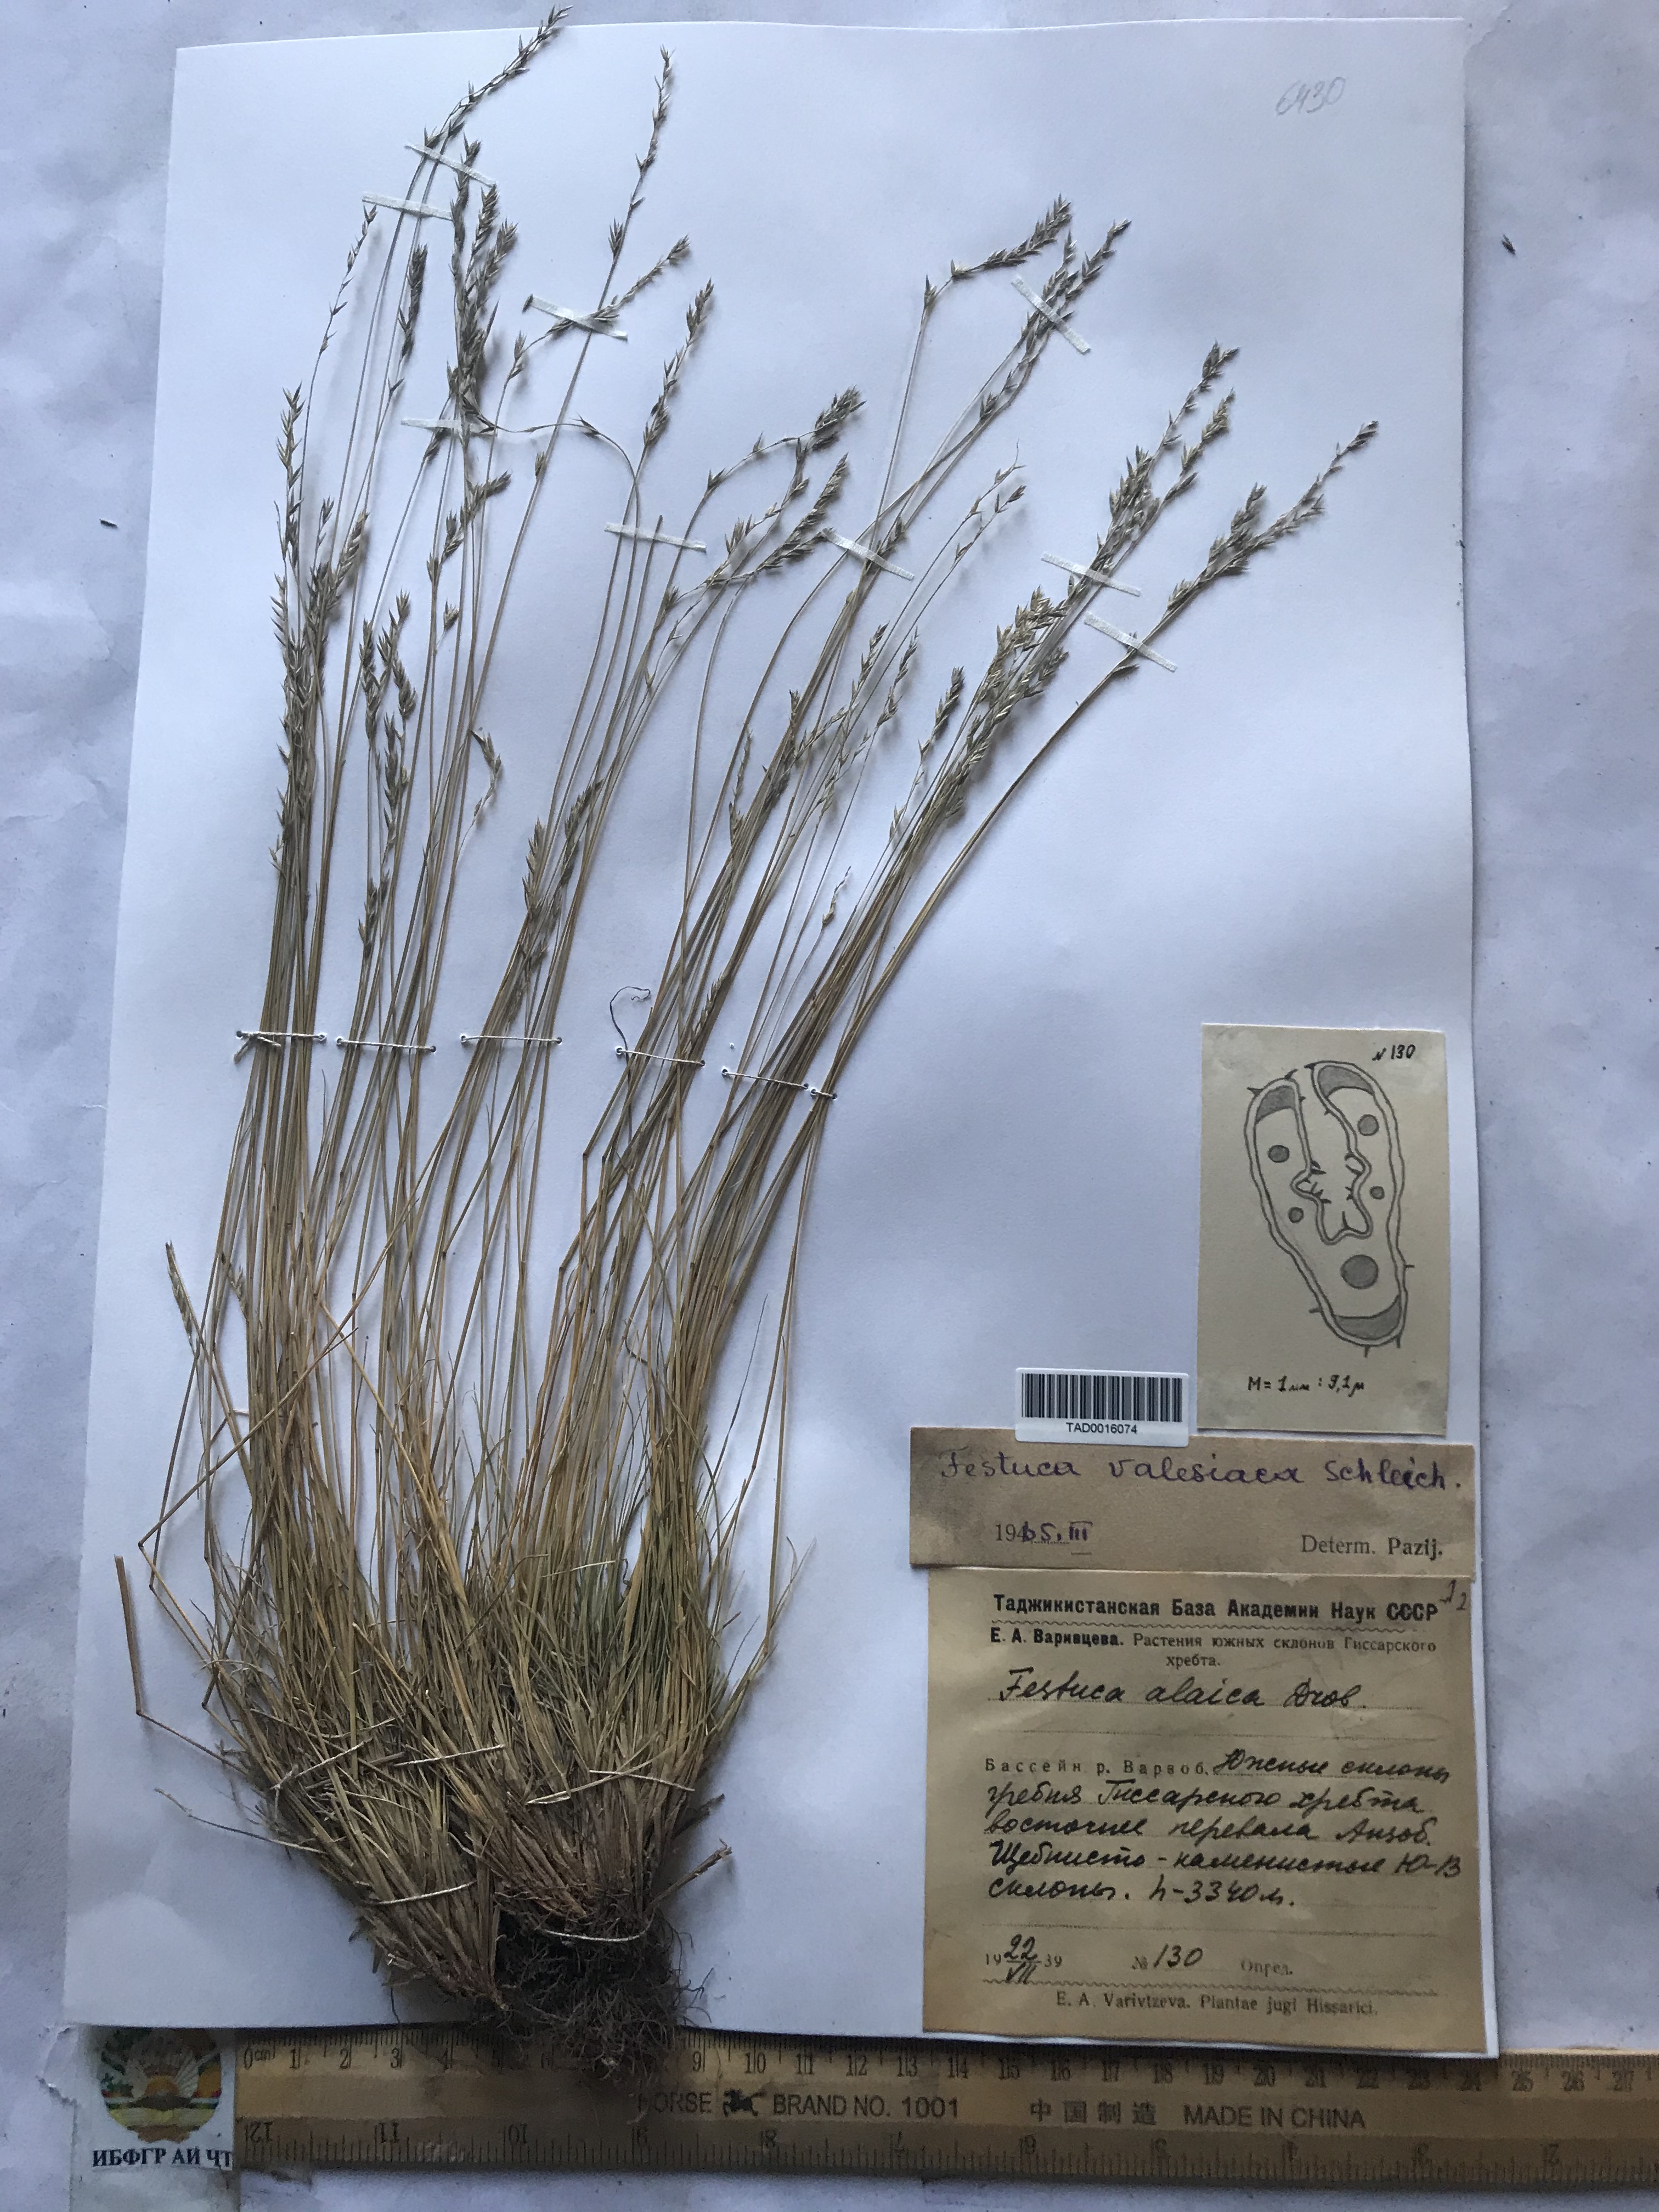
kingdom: Plantae
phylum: Tracheophyta
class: Liliopsida
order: Poales
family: Poaceae
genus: Festuca
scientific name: Festuca valesiaca
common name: Volga fescue
